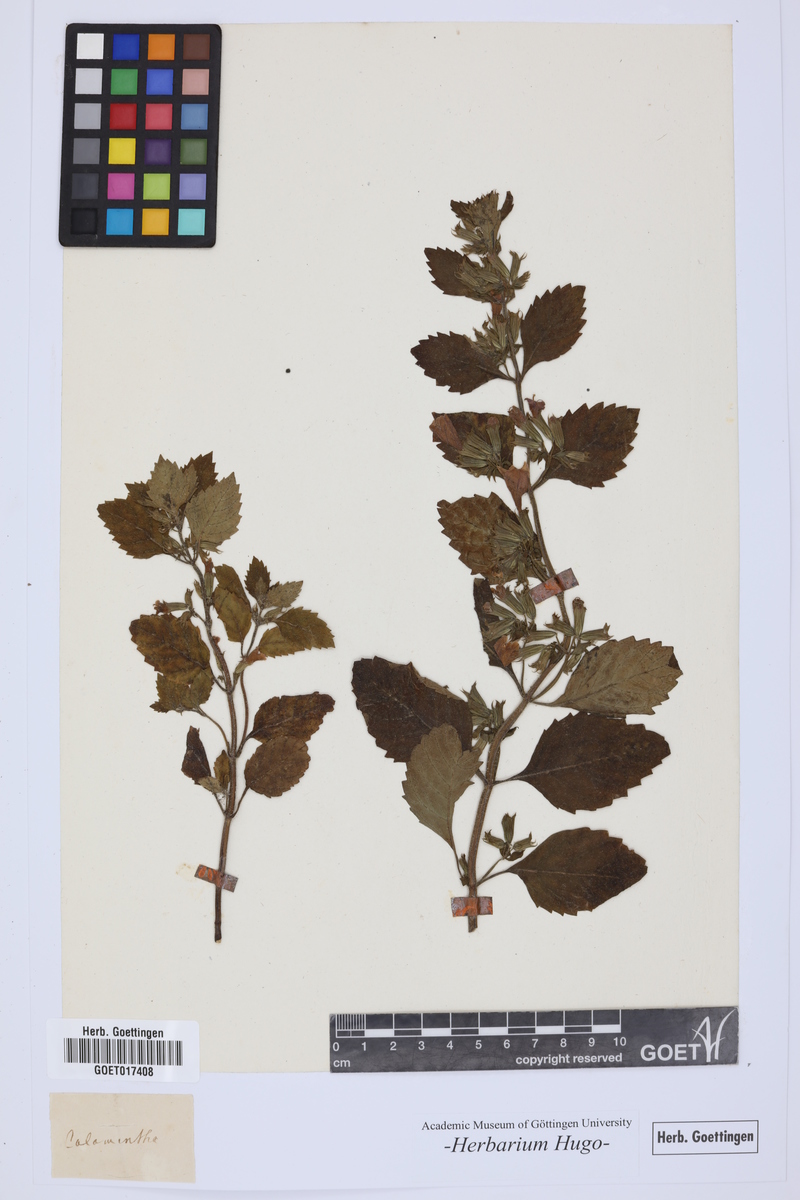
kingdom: Plantae
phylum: Tracheophyta
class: Magnoliopsida
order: Lamiales
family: Lamiaceae
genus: Calamintha
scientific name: Calamintha
